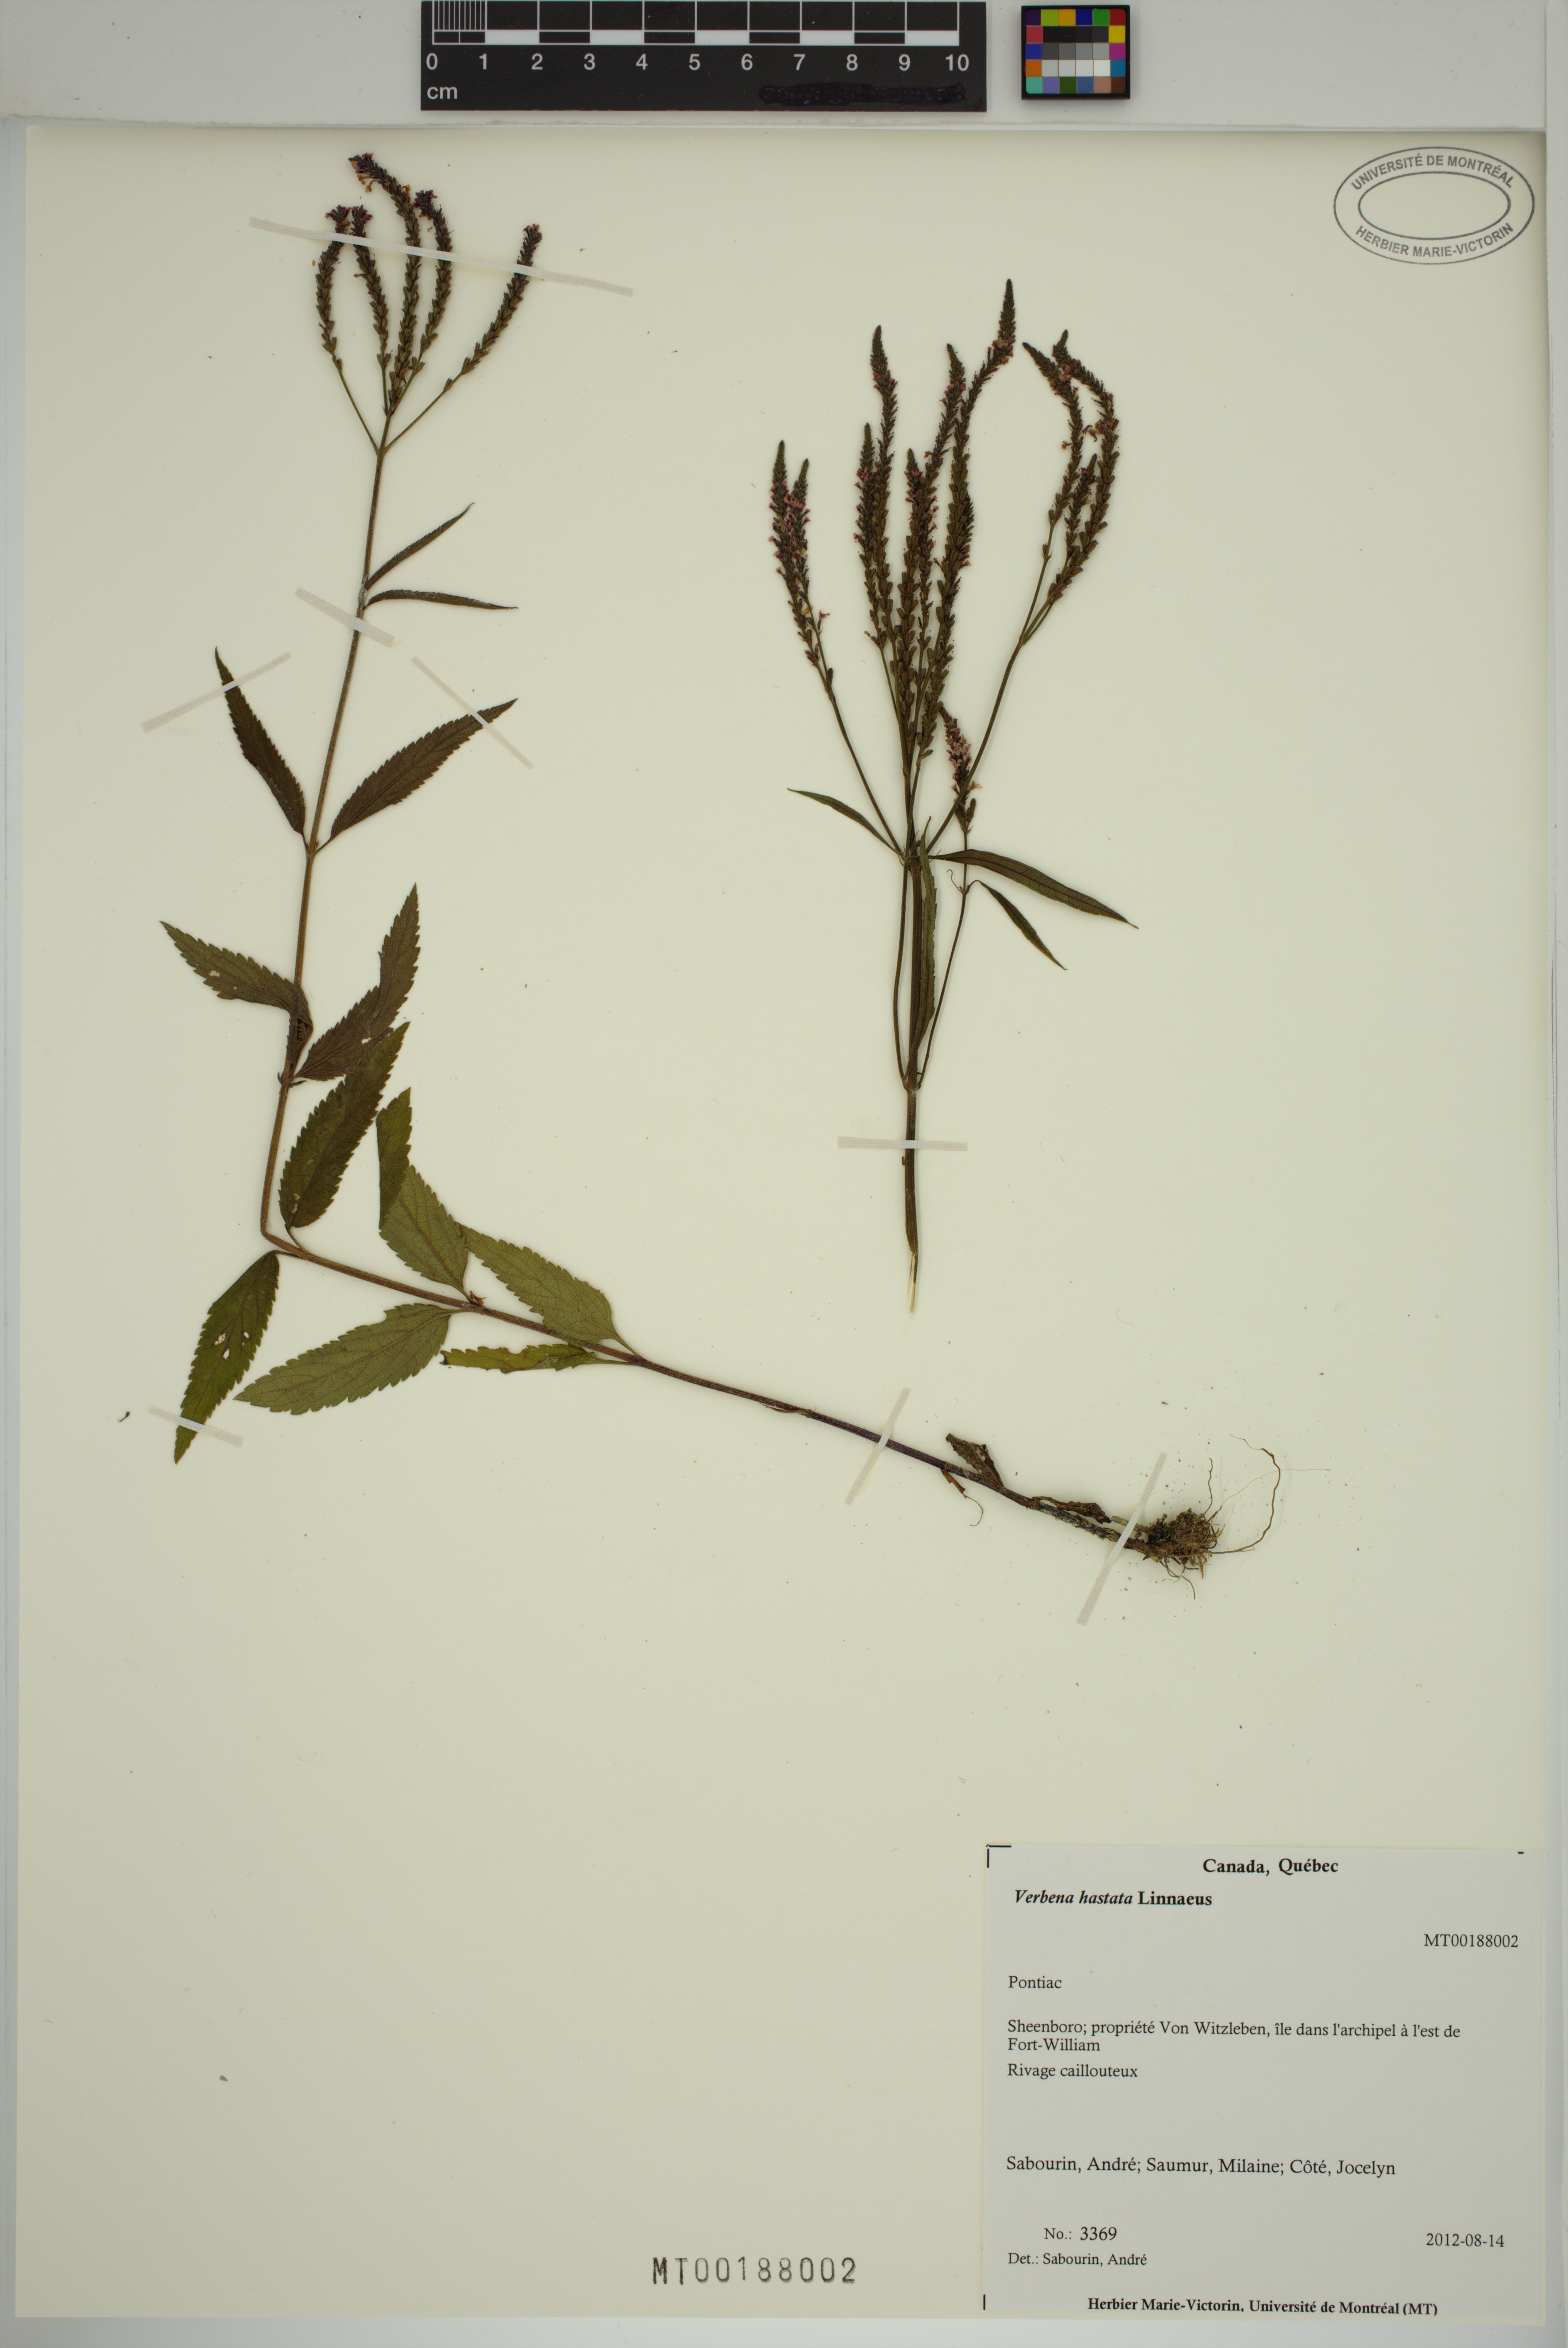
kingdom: Plantae
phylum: Tracheophyta
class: Magnoliopsida
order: Lamiales
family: Verbenaceae
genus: Verbena
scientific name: Verbena hastata
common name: American blue vervain
